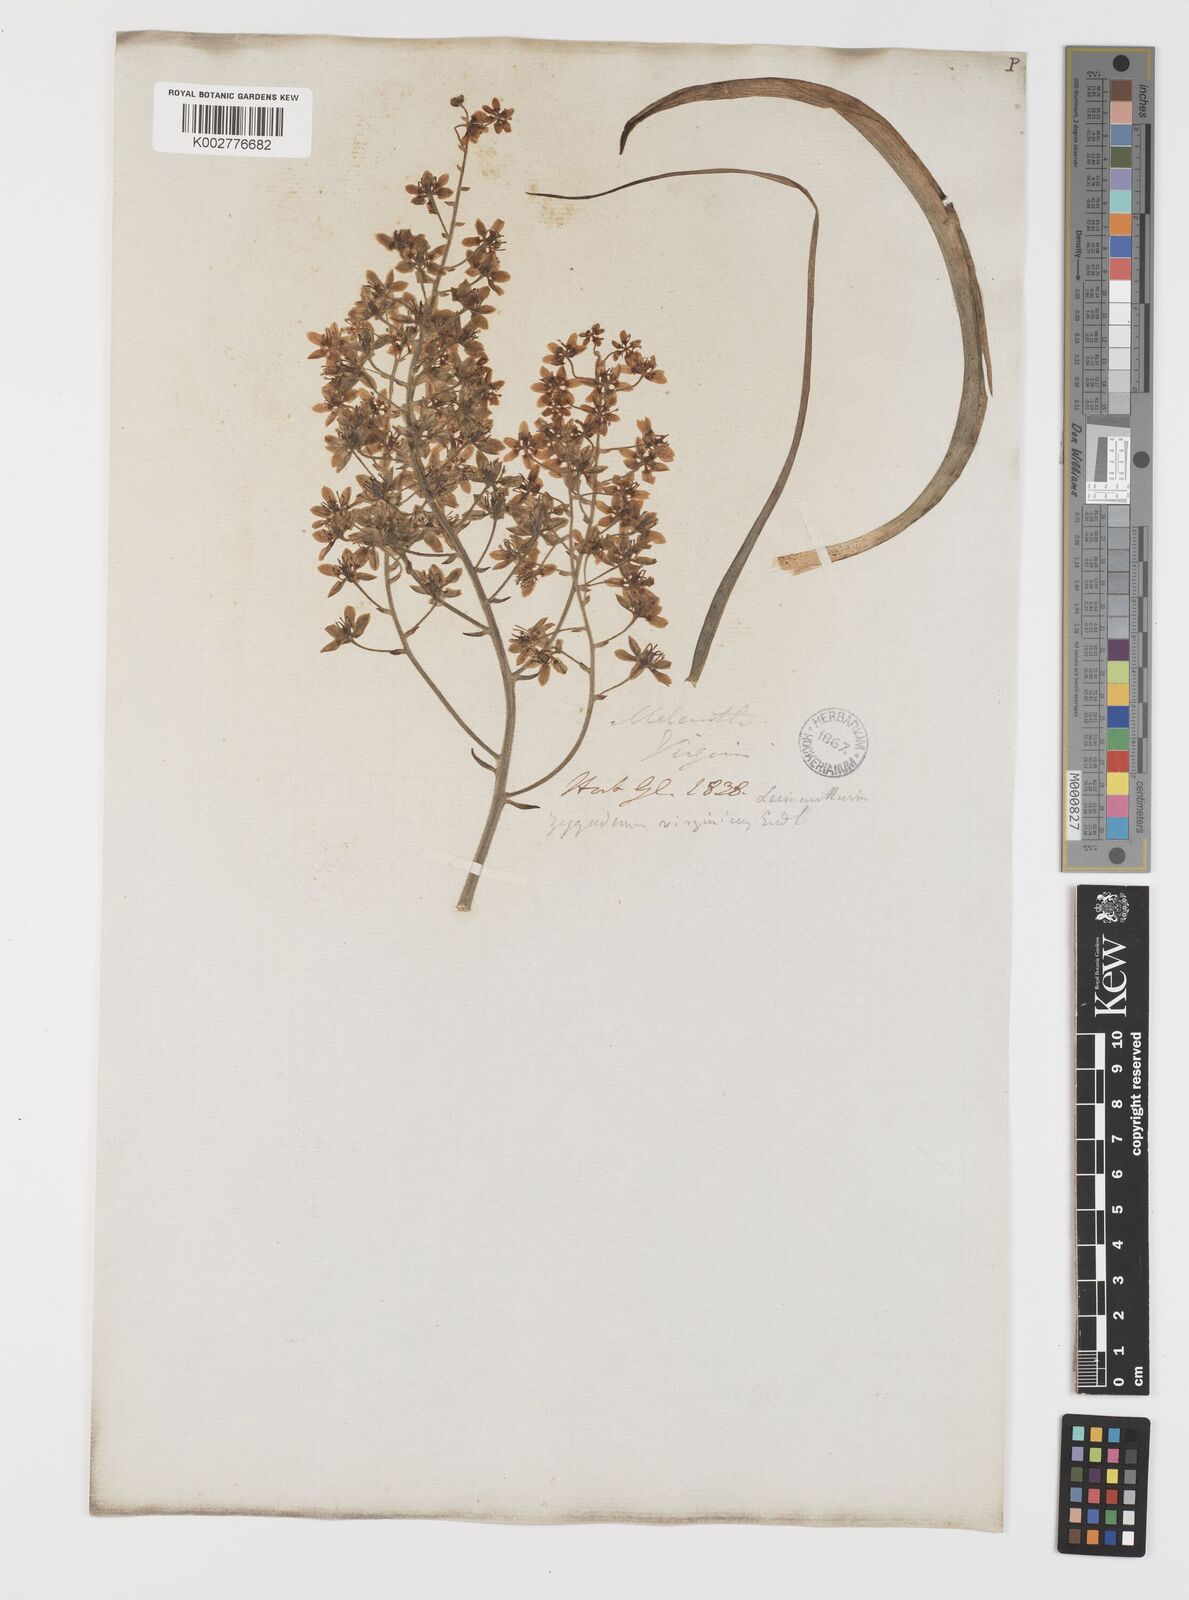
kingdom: Plantae
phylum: Tracheophyta
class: Liliopsida
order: Liliales
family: Melanthiaceae
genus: Melanthium
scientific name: Melanthium virginicum
